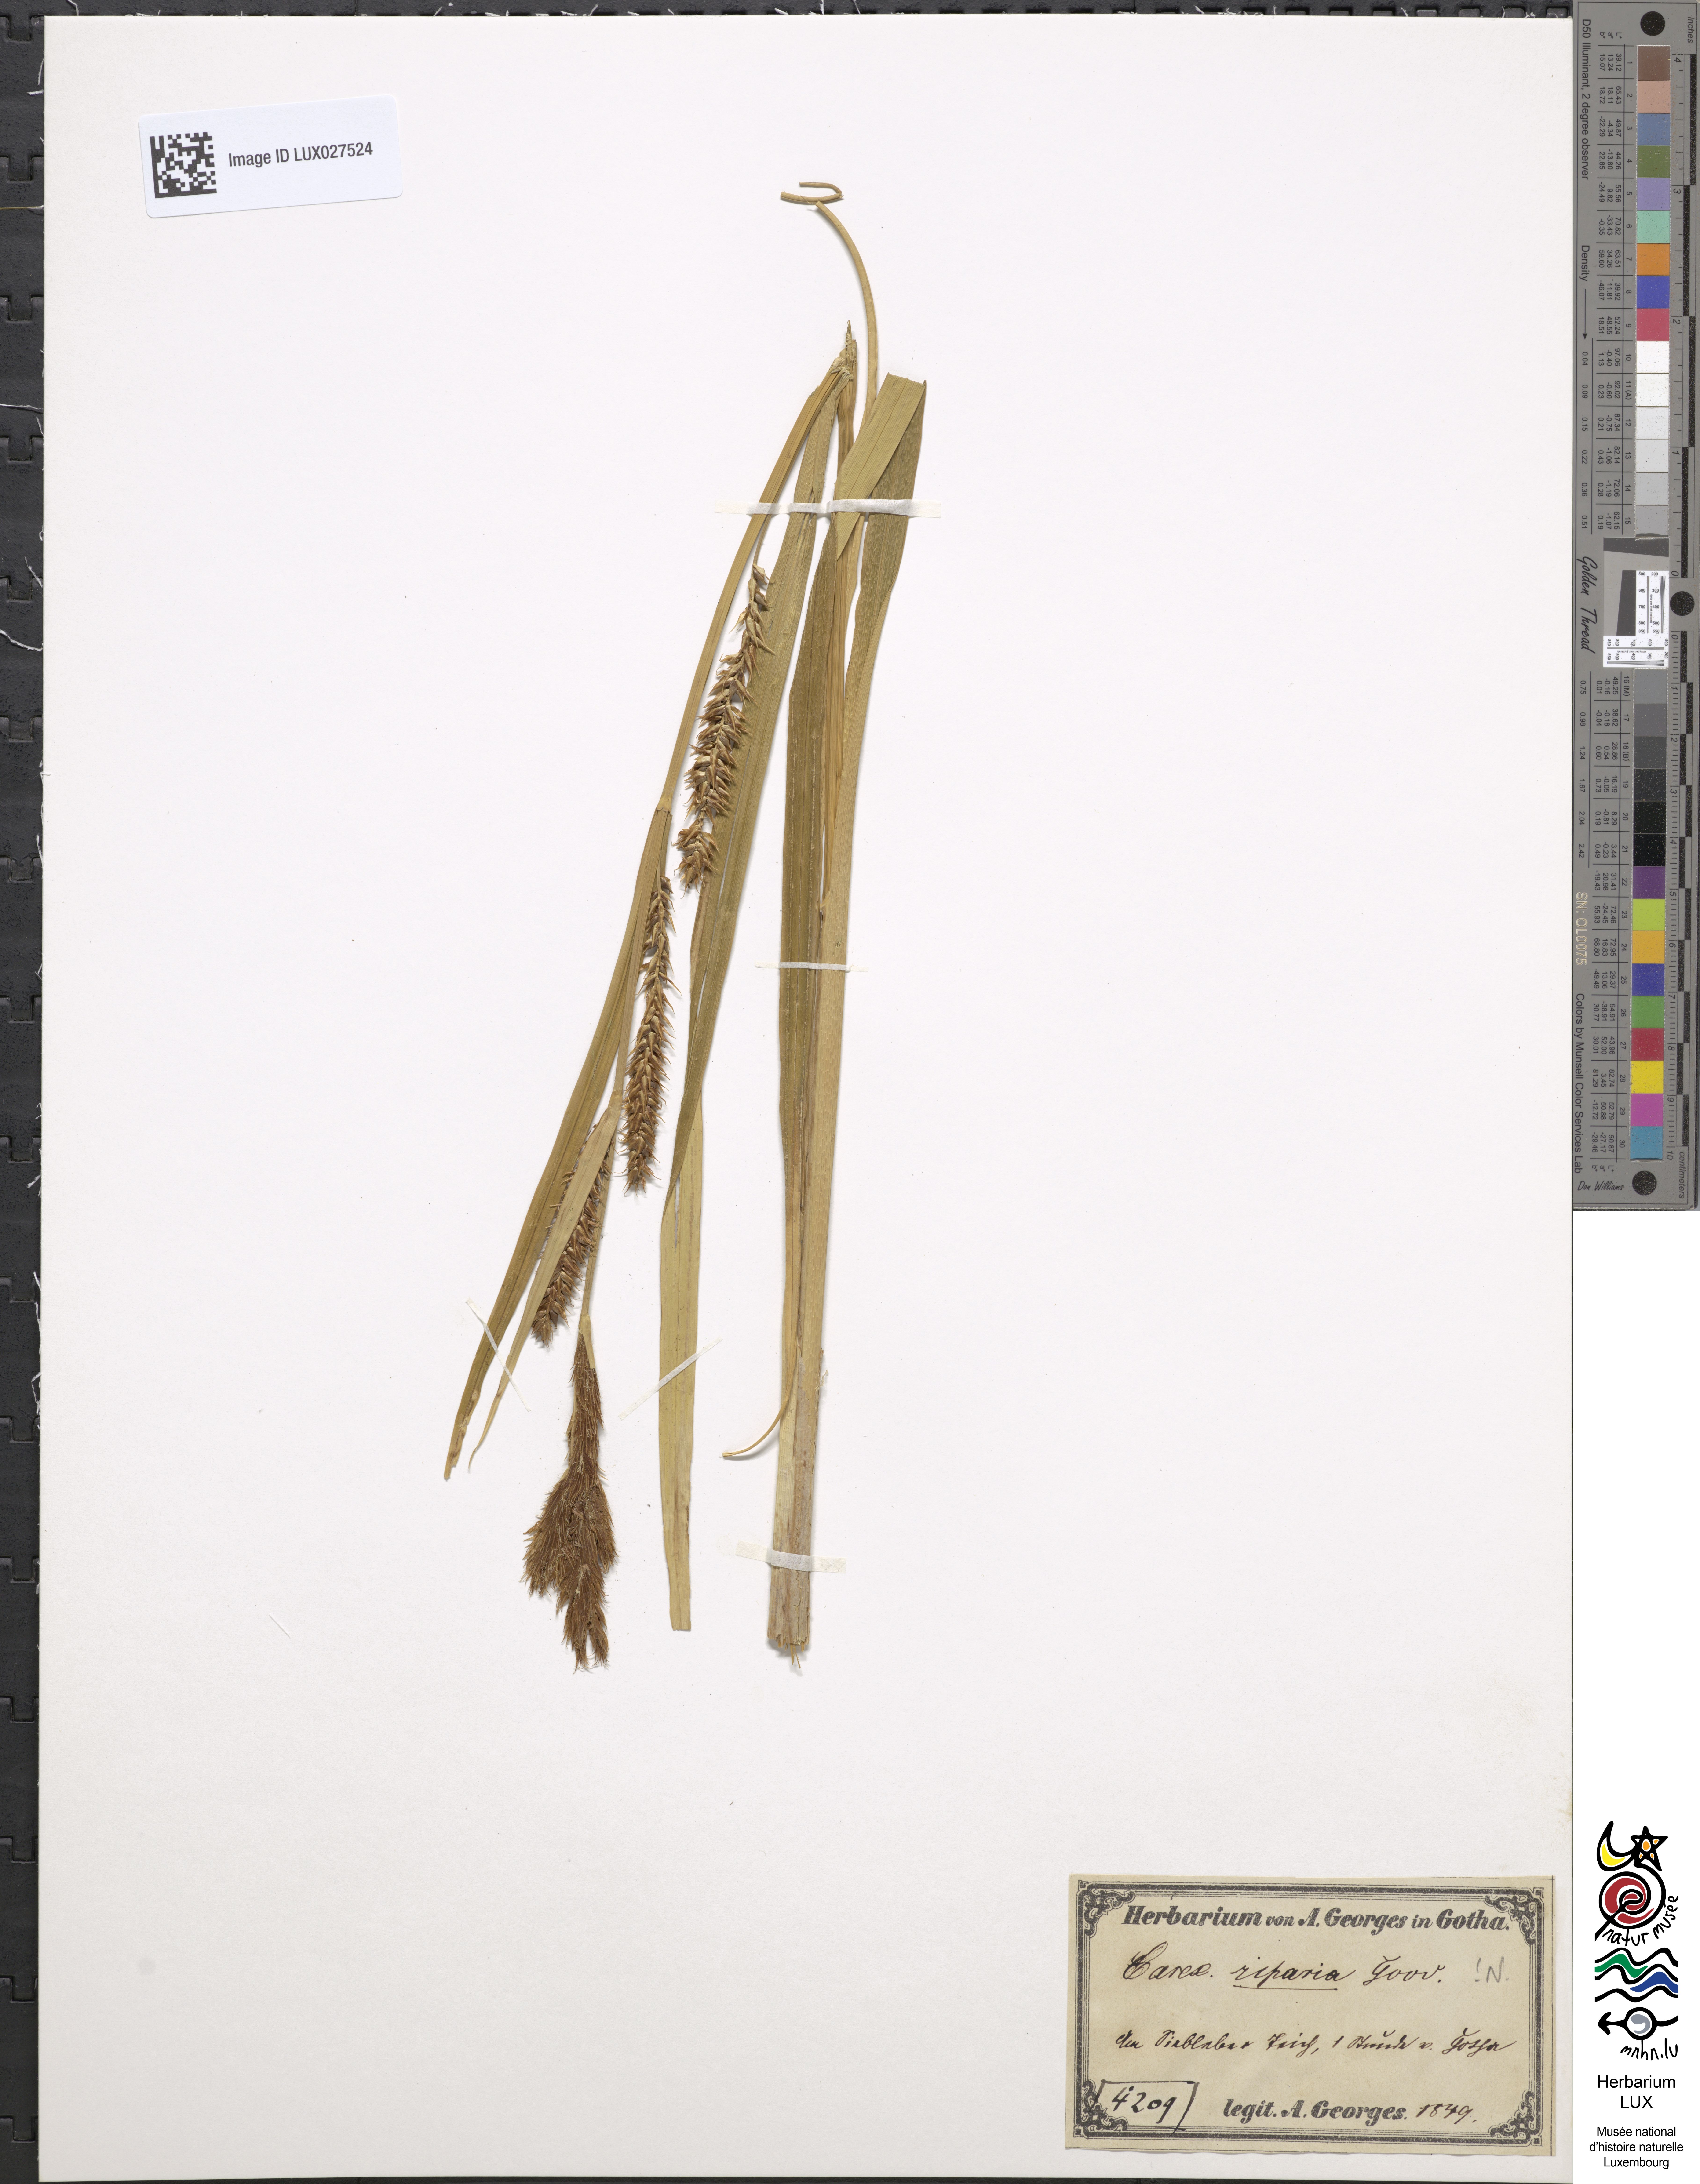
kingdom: Plantae
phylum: Tracheophyta
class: Liliopsida
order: Poales
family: Cyperaceae
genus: Carex
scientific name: Carex riparia
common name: Greater pond-sedge
